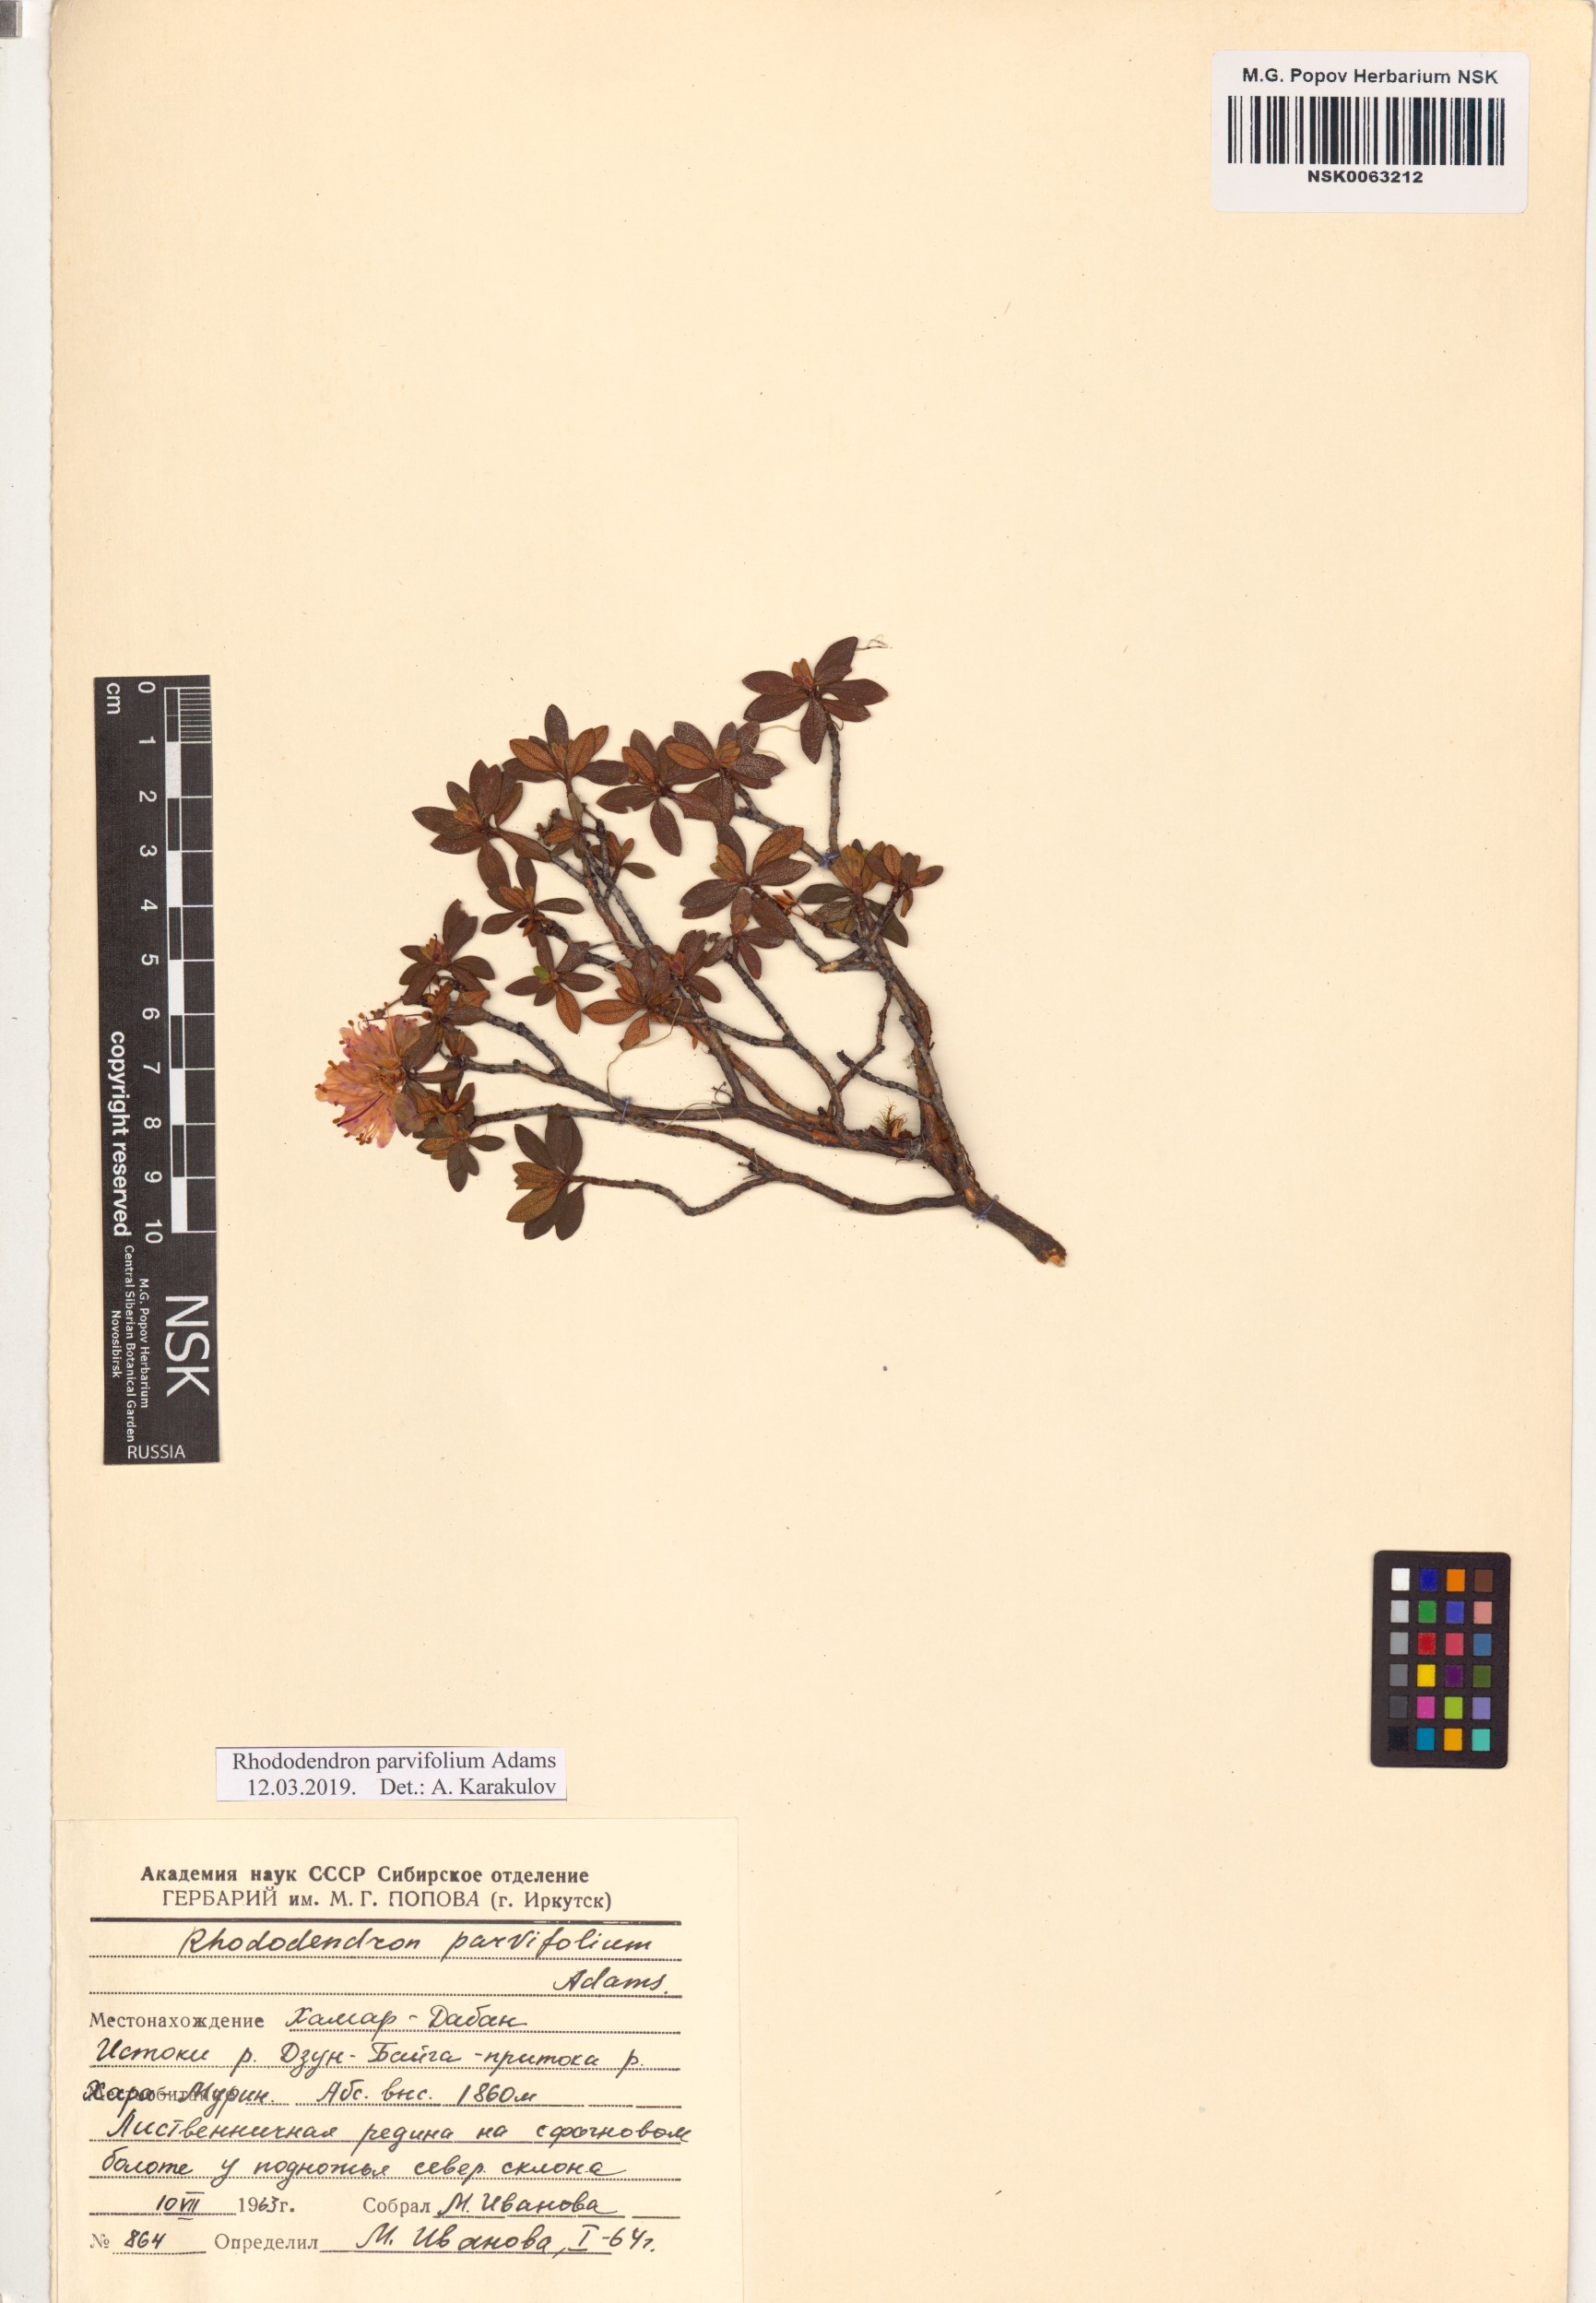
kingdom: Plantae
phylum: Tracheophyta
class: Magnoliopsida
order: Ericales
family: Ericaceae
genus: Rhododendron
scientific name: Rhododendron parvifolium
